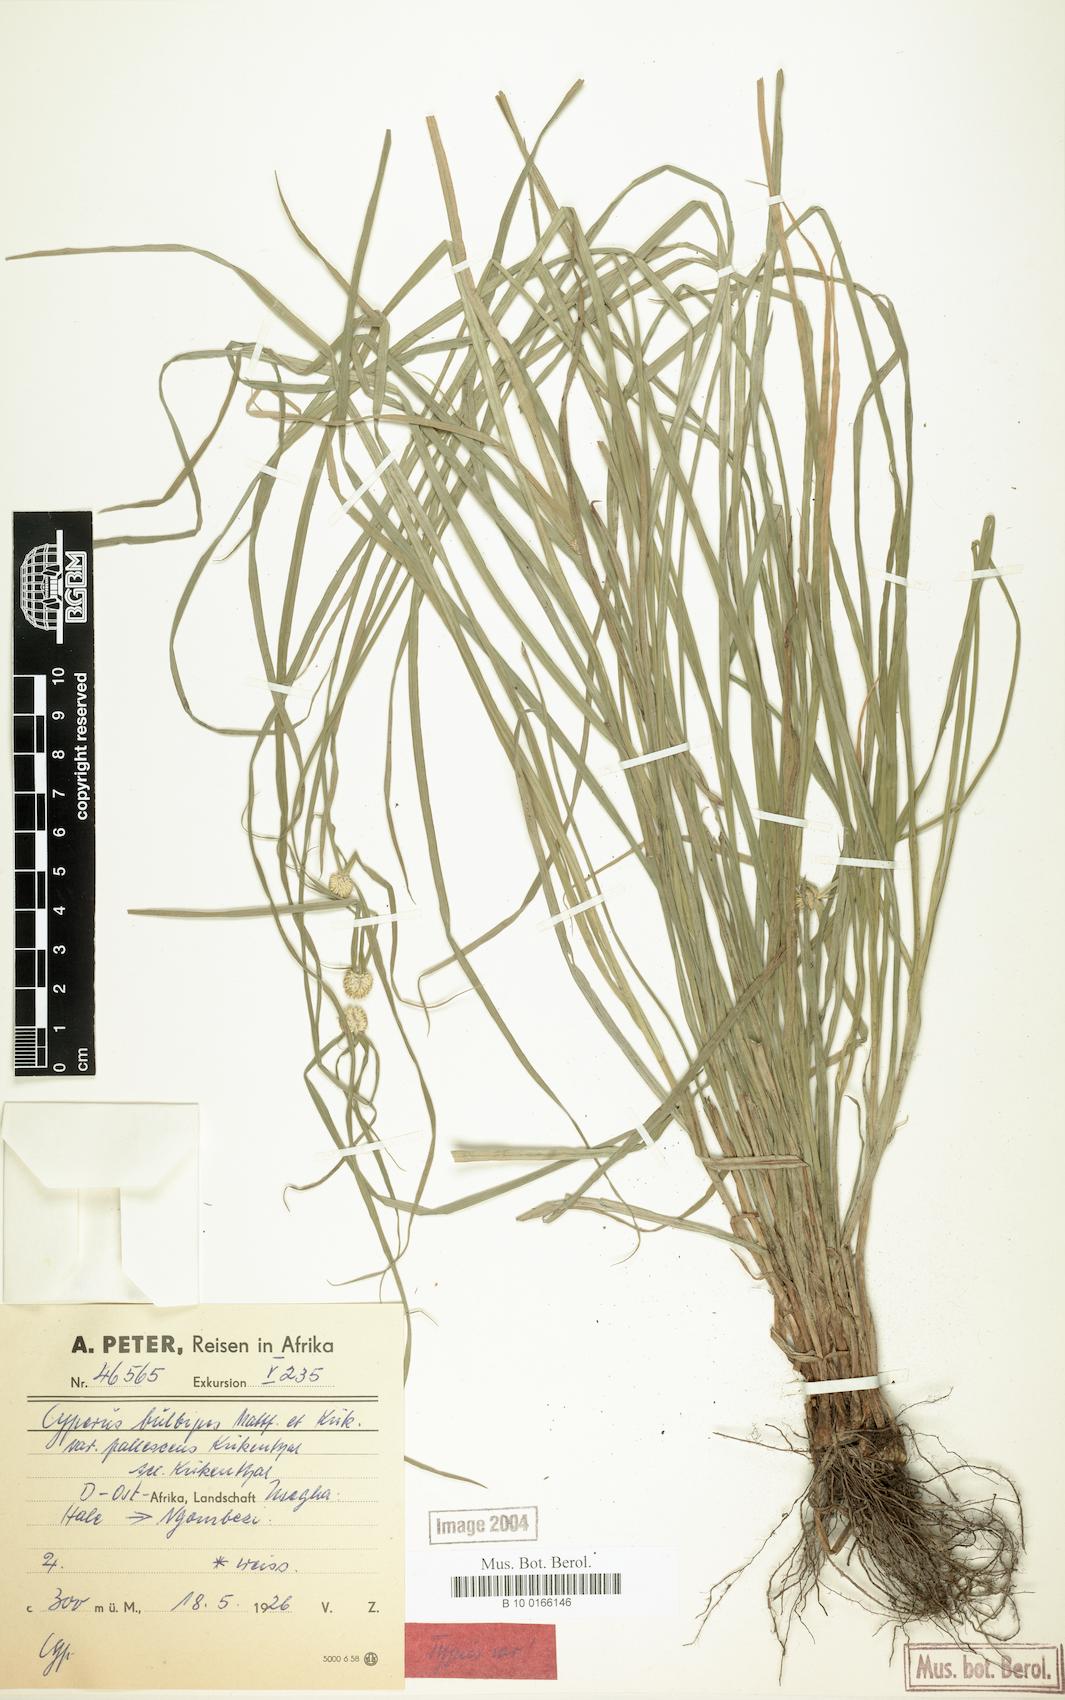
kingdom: Plantae
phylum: Tracheophyta
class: Liliopsida
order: Poales
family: Cyperaceae
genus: Cyperus
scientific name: Cyperus bulbipes
